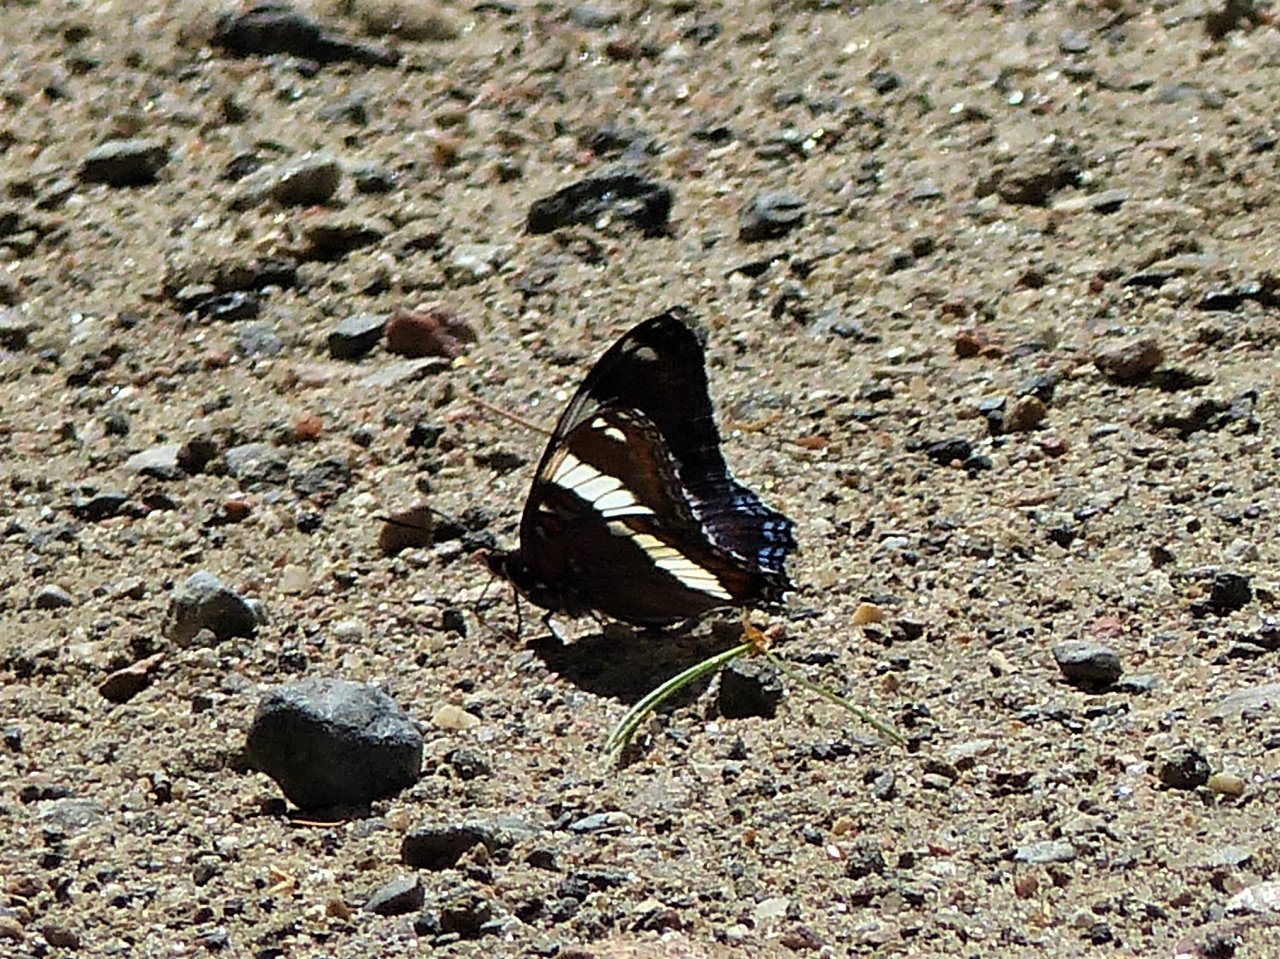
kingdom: Animalia
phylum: Arthropoda
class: Insecta
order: Lepidoptera
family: Nymphalidae
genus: Limenitis
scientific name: Limenitis arthemis
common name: Red-spotted Admiral
